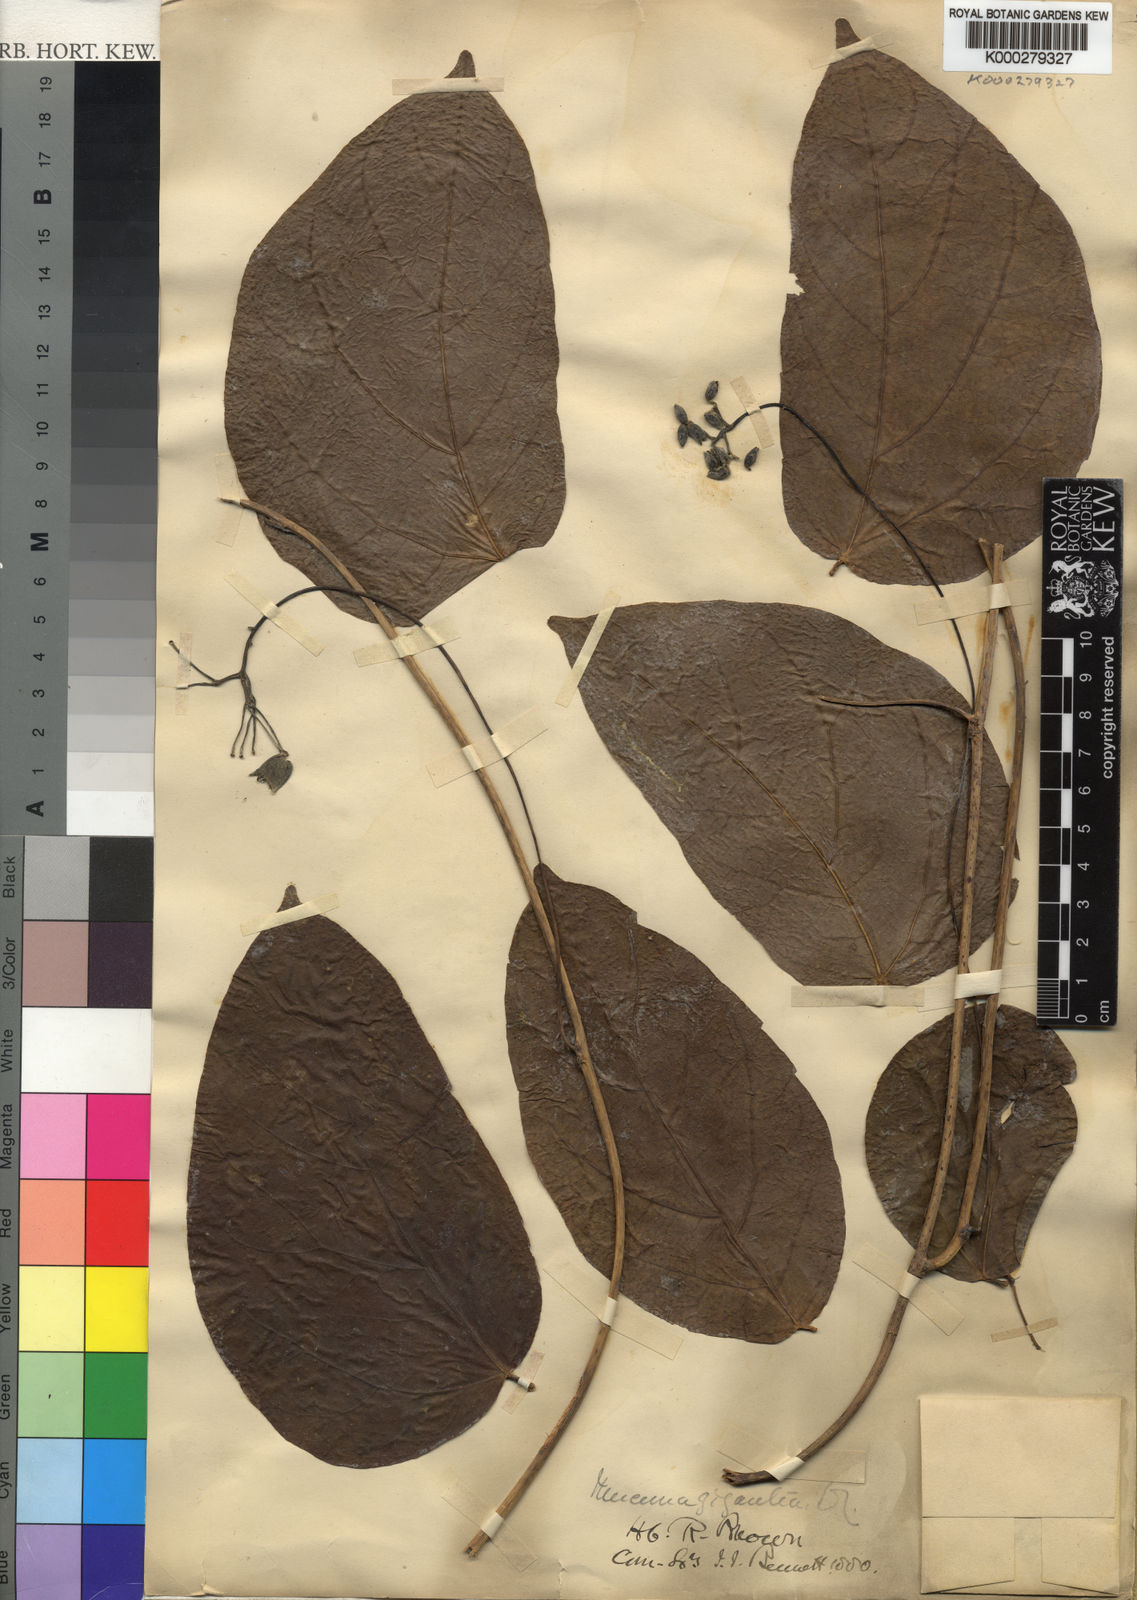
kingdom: Plantae
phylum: Tracheophyta
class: Magnoliopsida
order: Fabales
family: Fabaceae
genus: Mucuna
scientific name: Mucuna gigantea
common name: Black-bean
